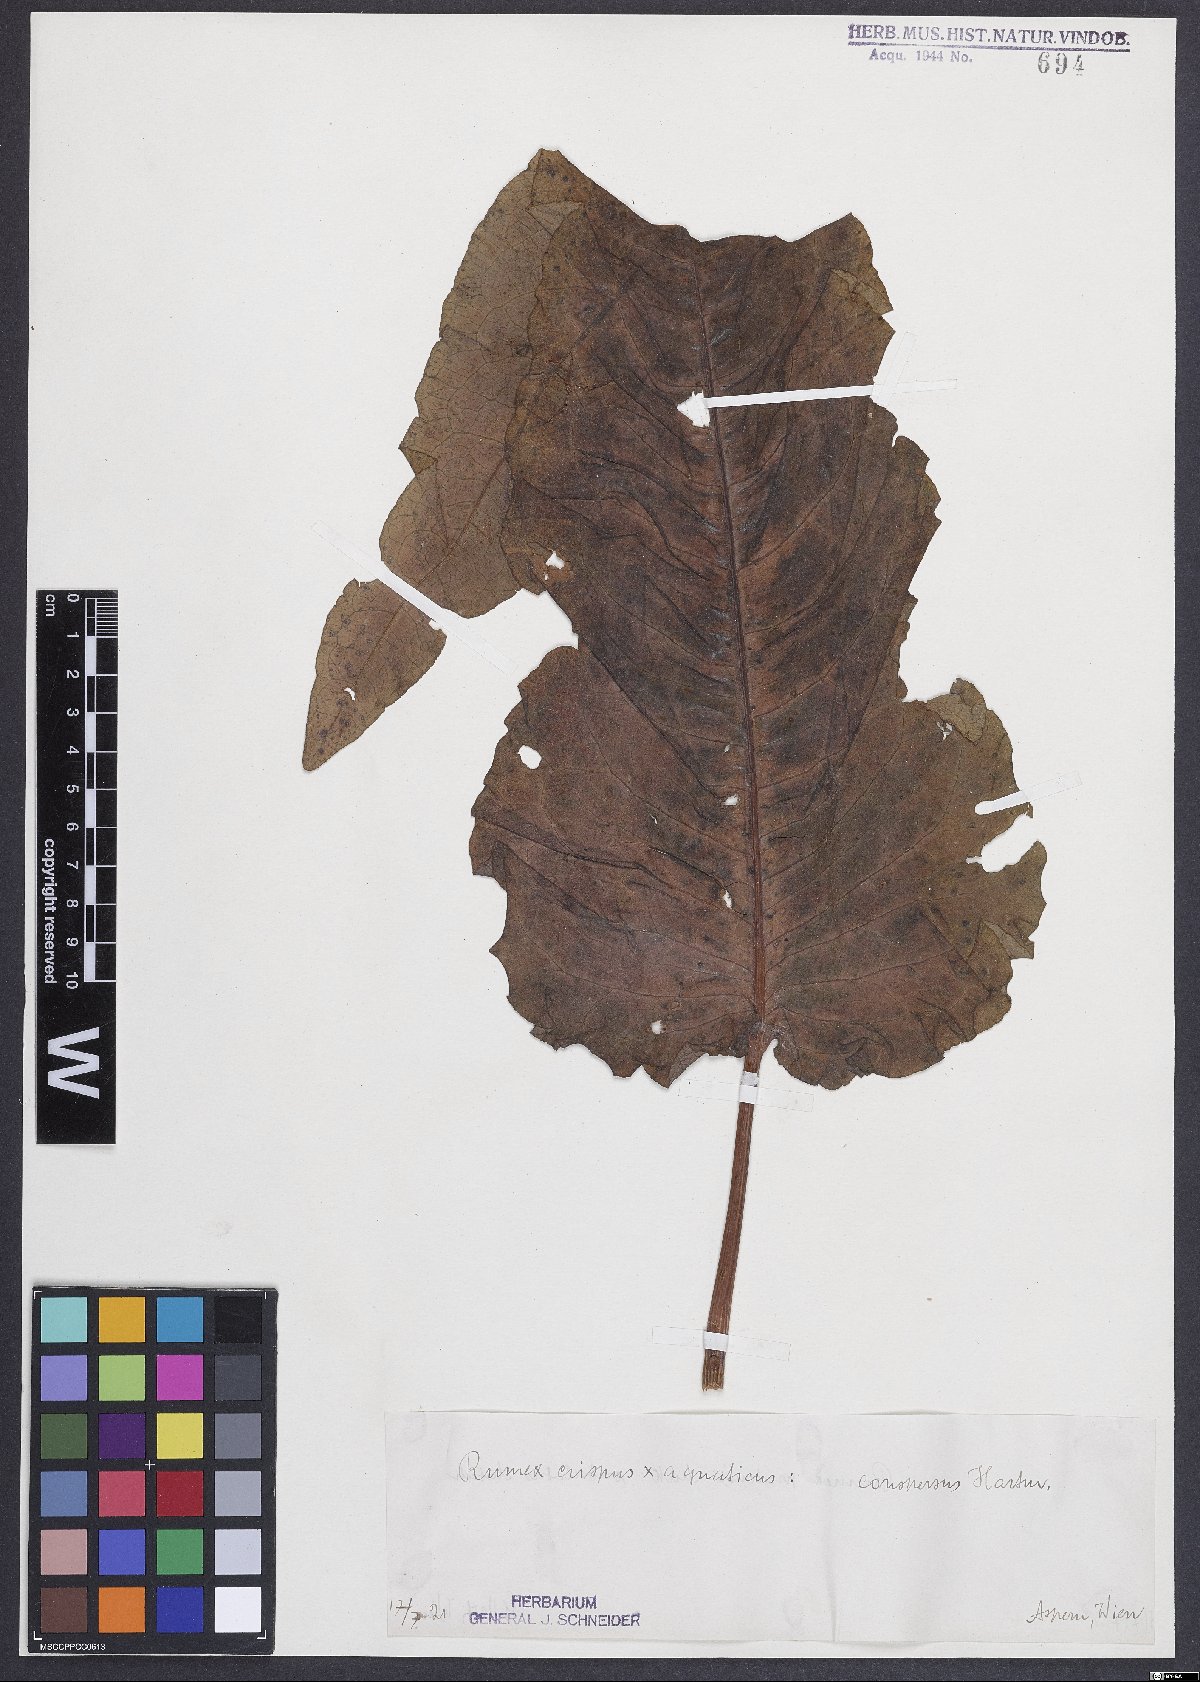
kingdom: Plantae
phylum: Tracheophyta
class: Magnoliopsida
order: Caryophyllales
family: Polygonaceae
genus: Rumex
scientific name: Rumex aquaticus
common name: Scottish dock
